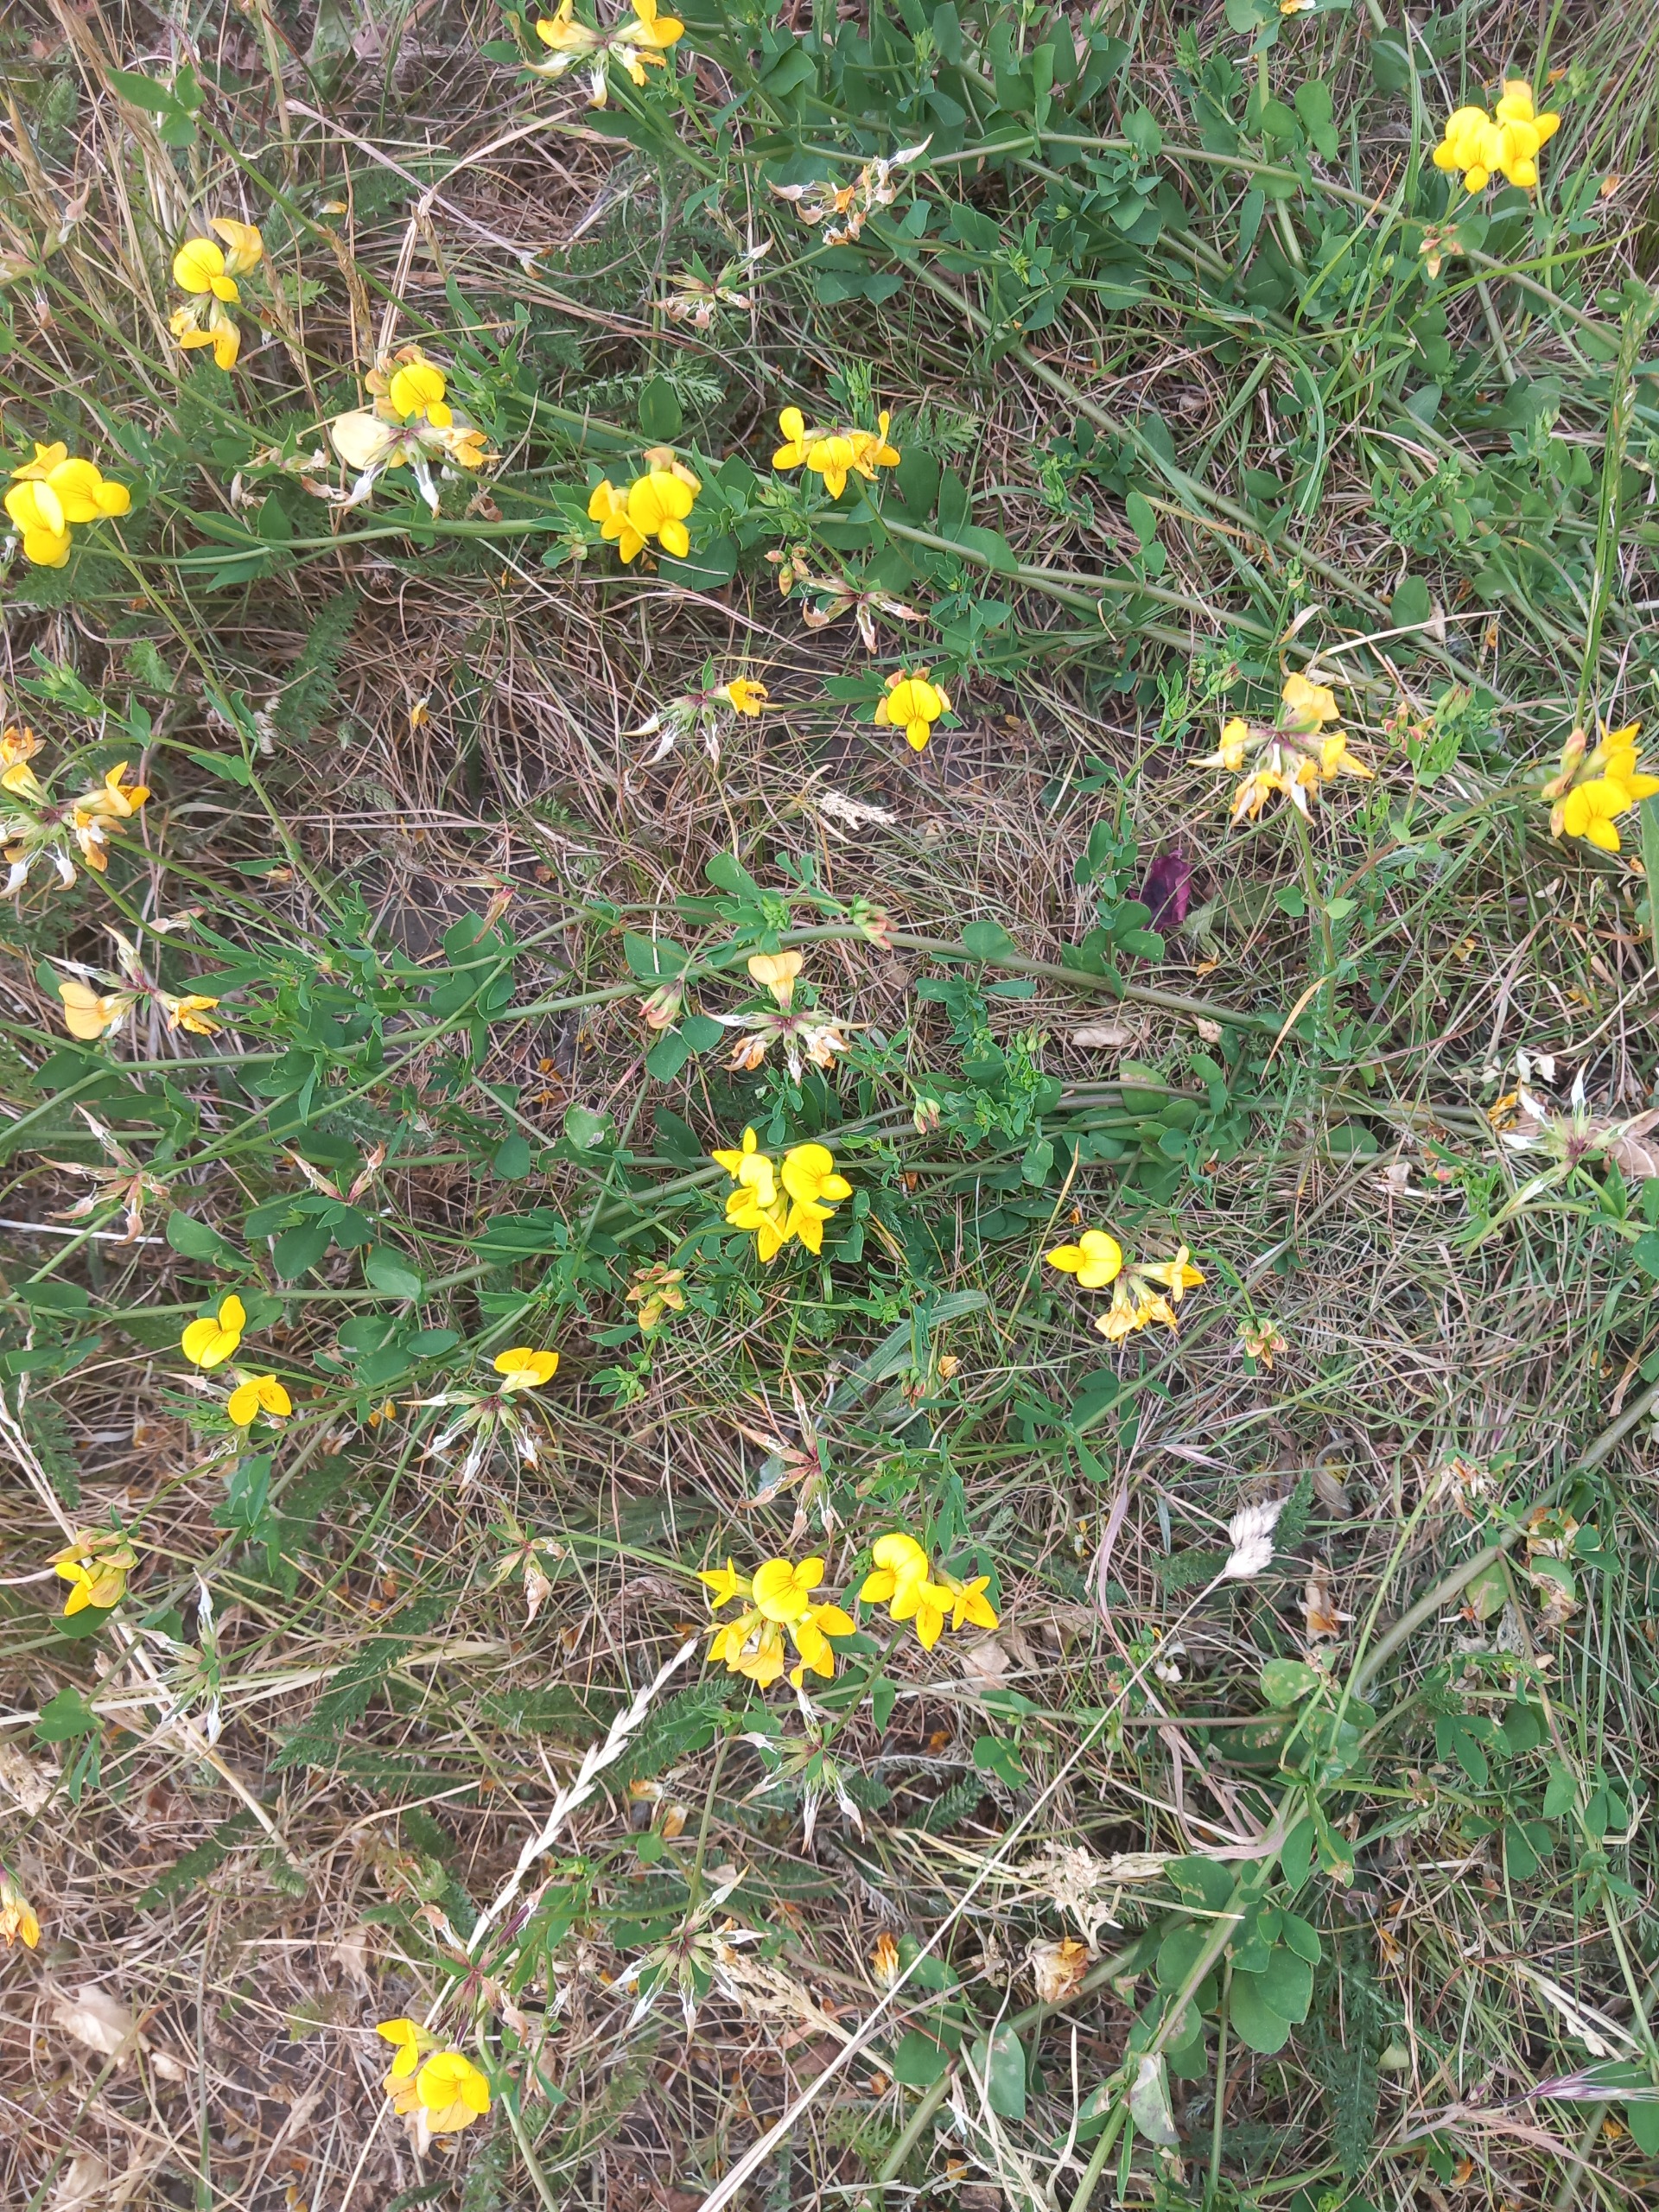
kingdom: Plantae
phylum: Tracheophyta
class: Magnoliopsida
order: Fabales
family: Fabaceae
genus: Lotus
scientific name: Lotus corniculatus
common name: Almindelig kællingetand
